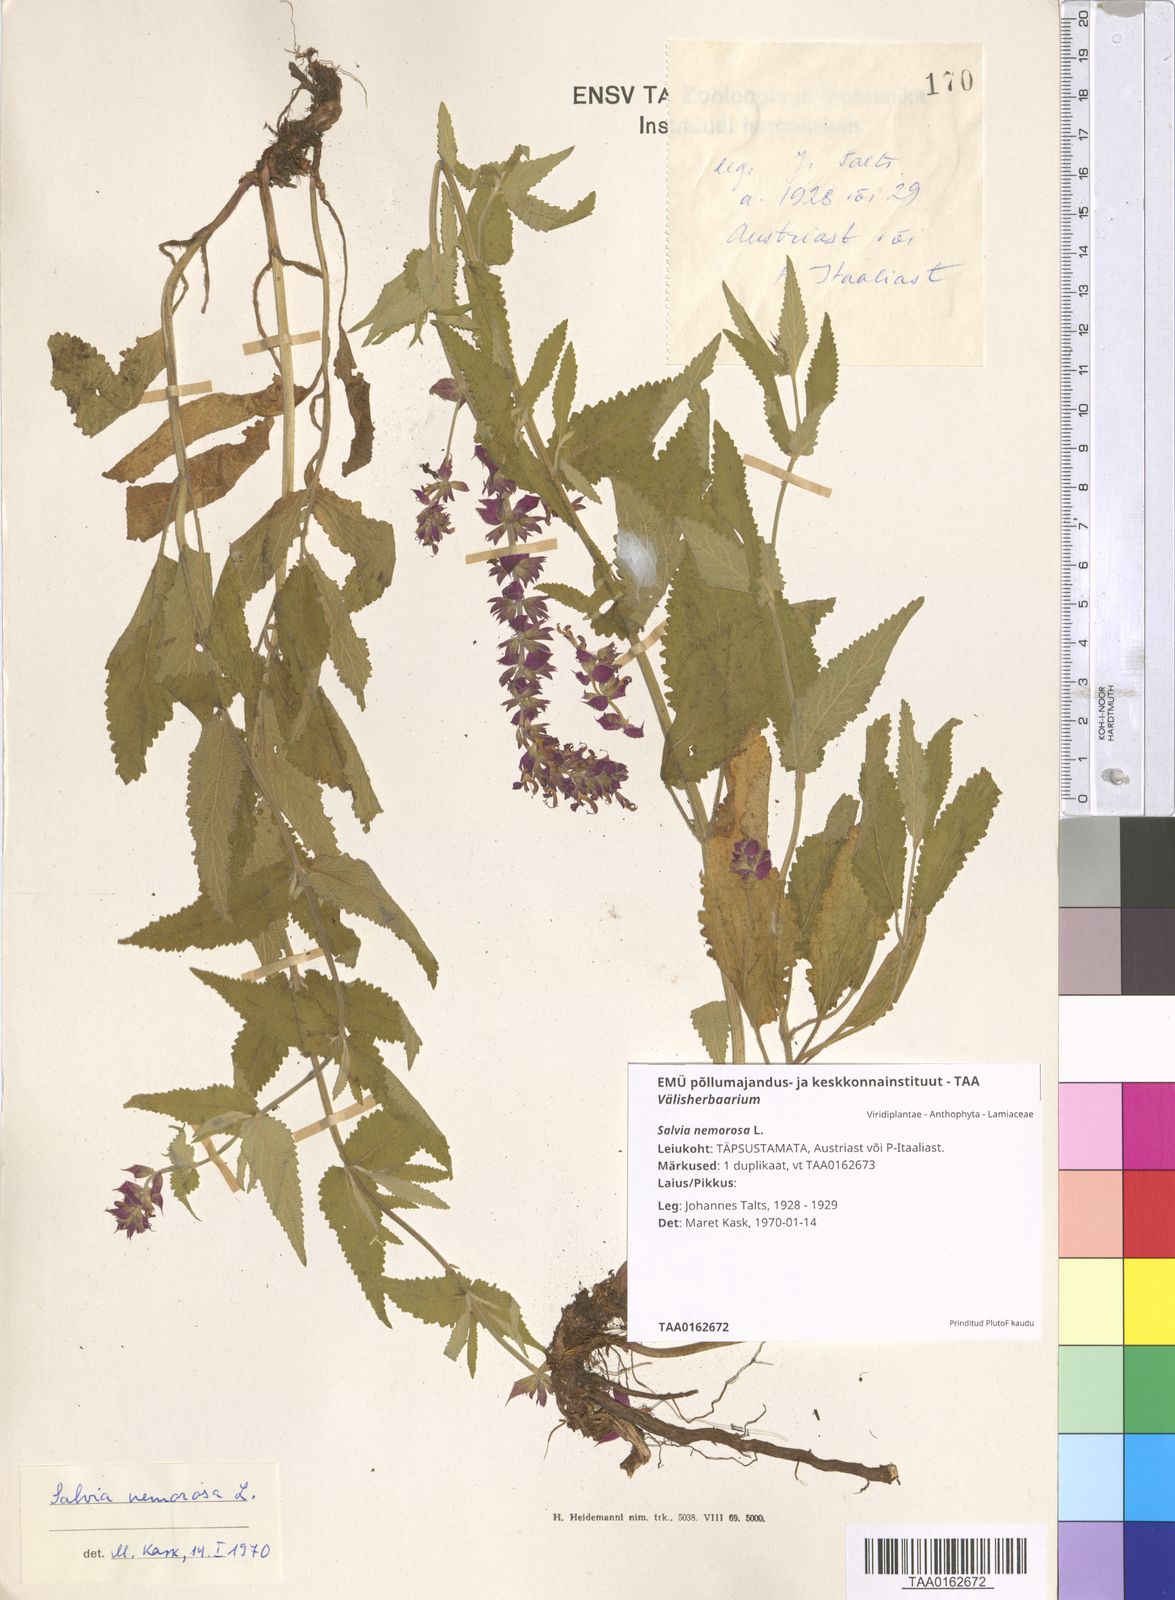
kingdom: Plantae
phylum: Tracheophyta
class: Magnoliopsida
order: Lamiales
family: Lamiaceae
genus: Salvia
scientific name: Salvia nemorosa
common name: Balkan clary
